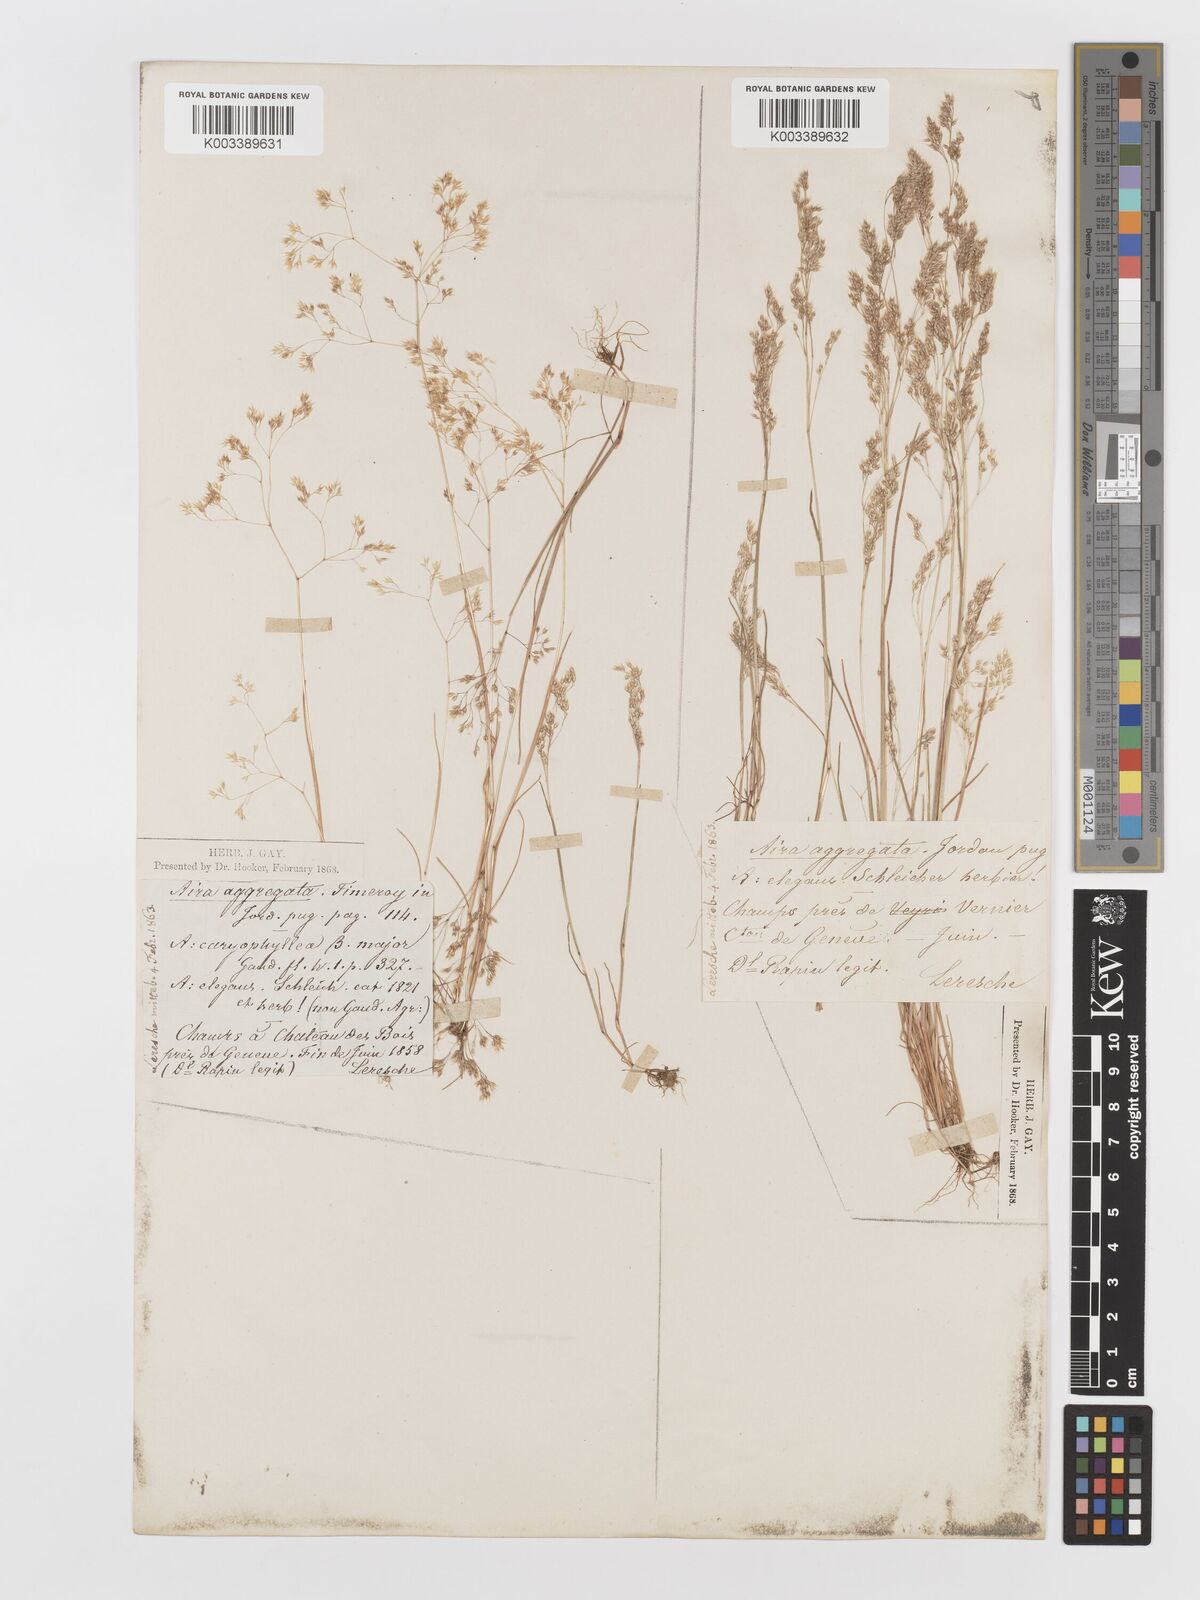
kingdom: Plantae
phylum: Tracheophyta
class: Liliopsida
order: Poales
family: Poaceae
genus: Aira
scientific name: Aira caryophyllea
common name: Silver hairgrass
